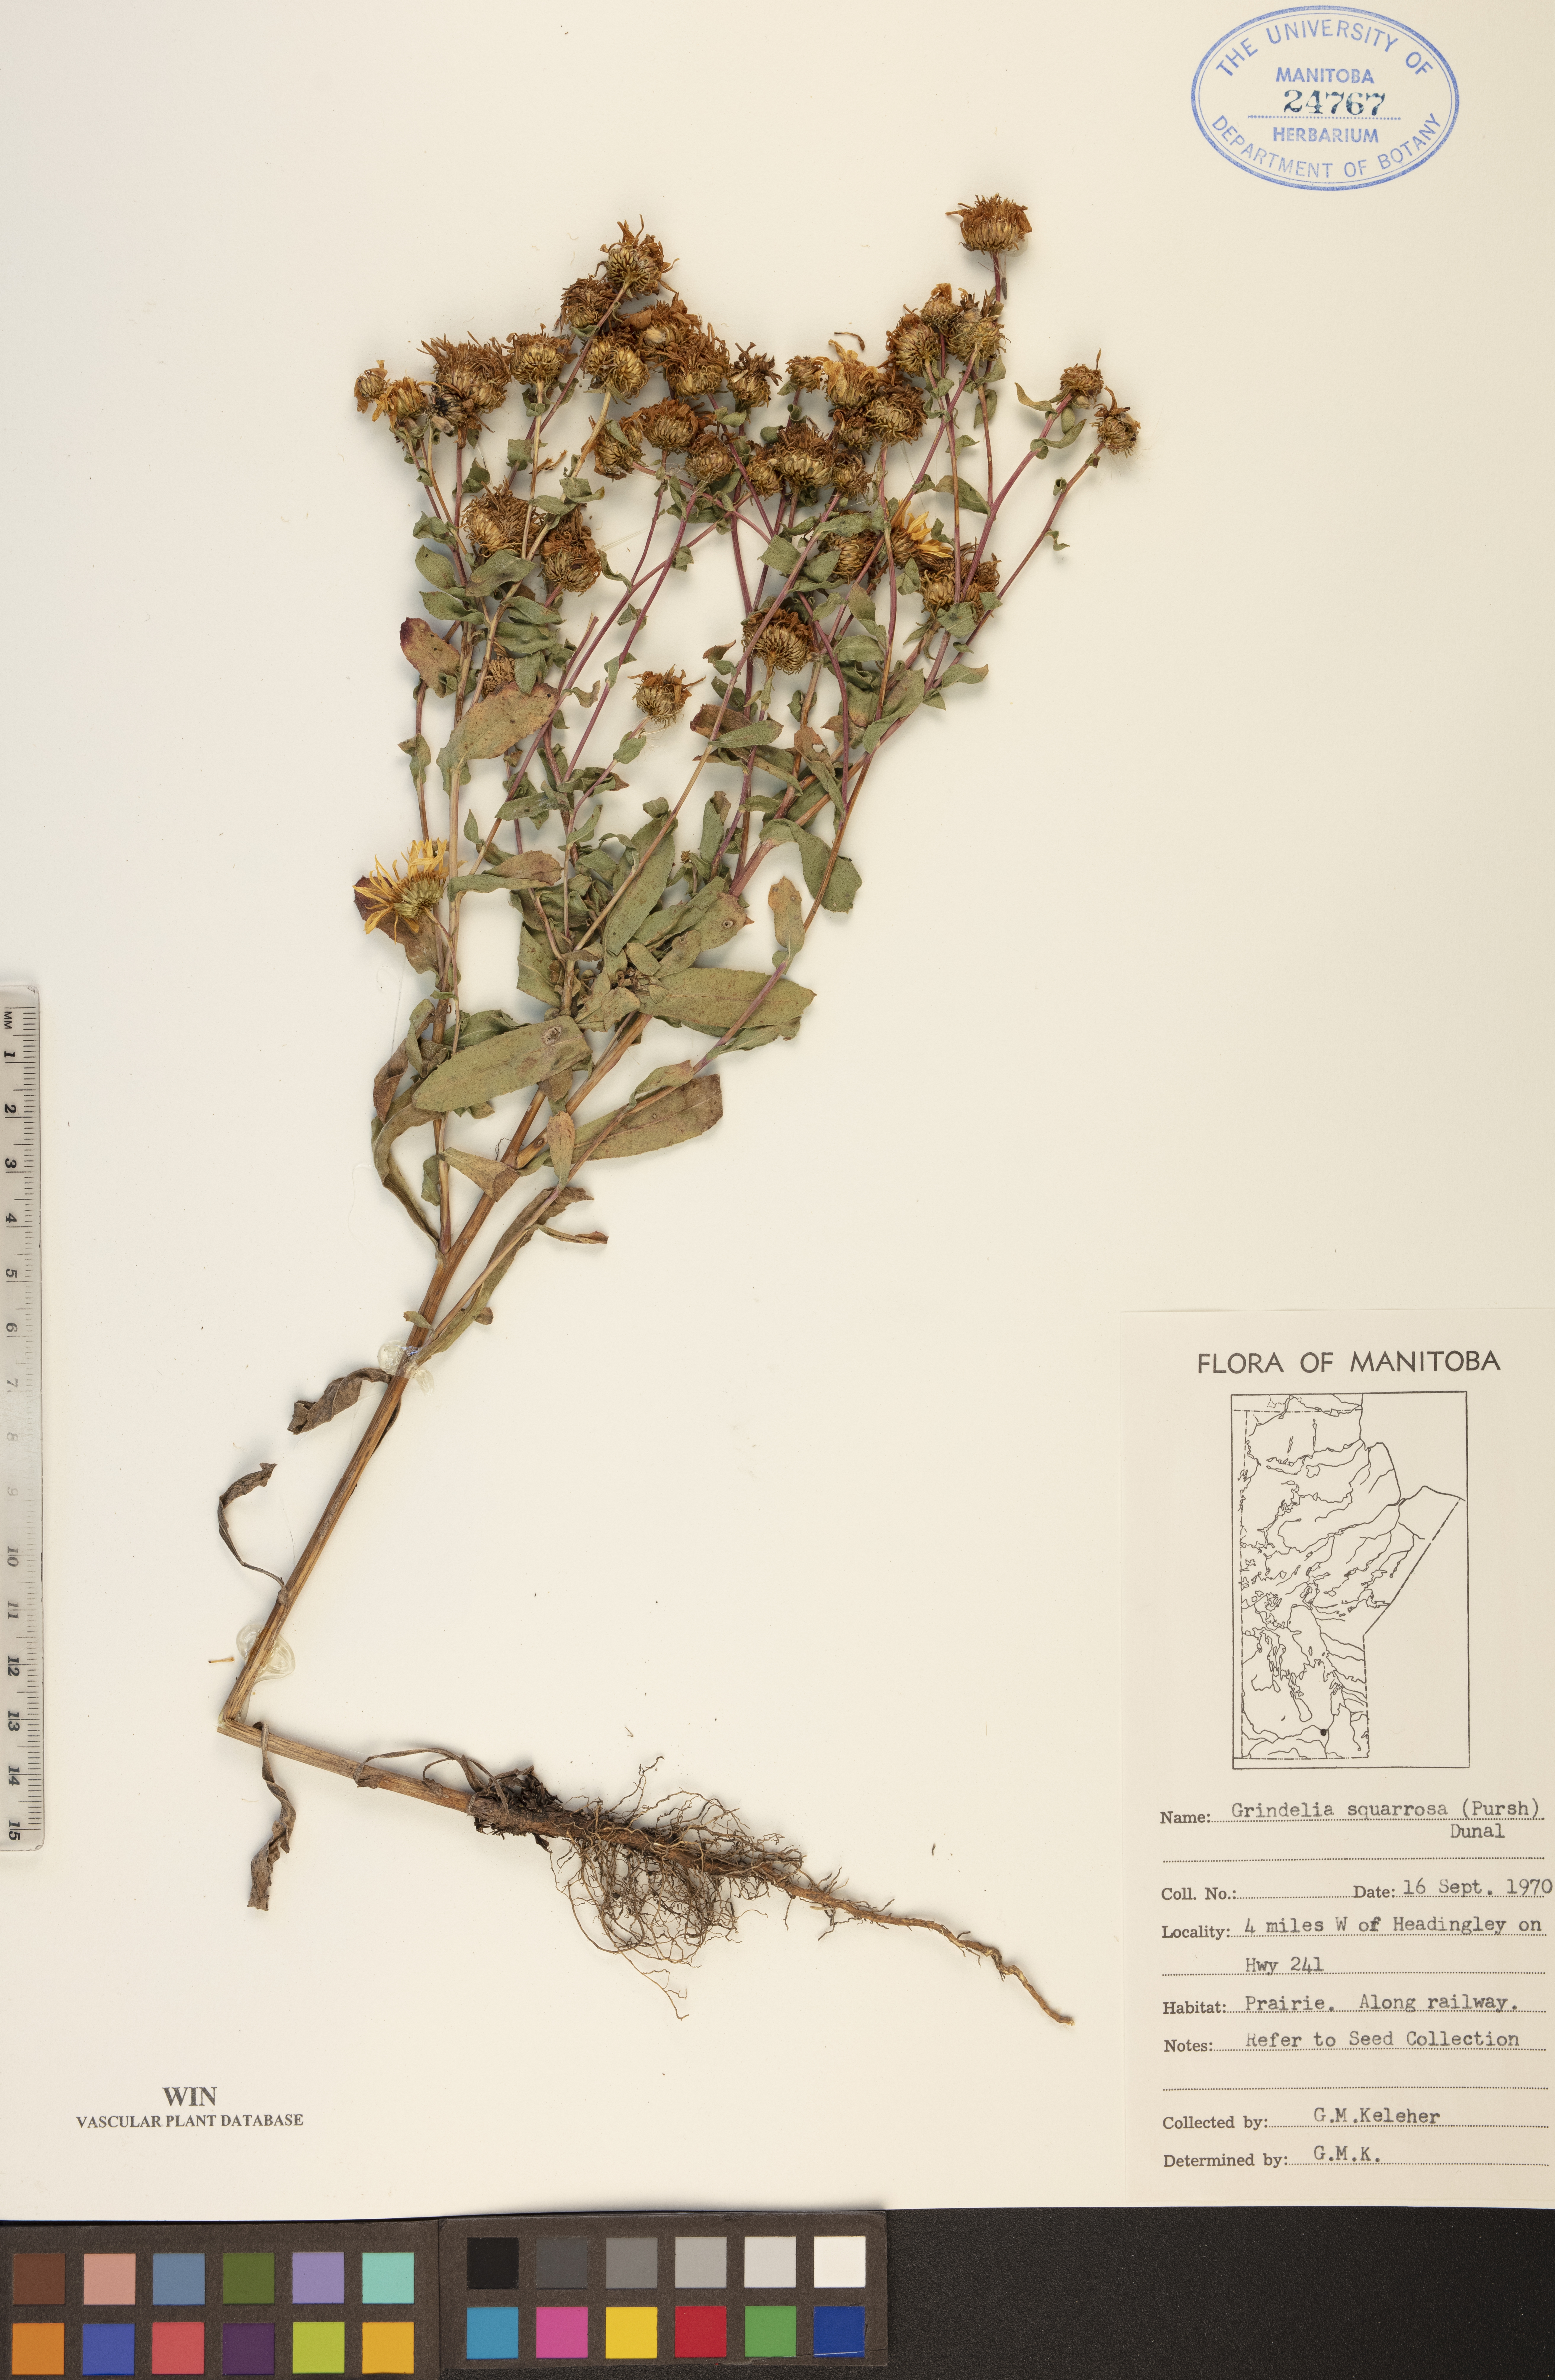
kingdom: Plantae
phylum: Tracheophyta
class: Magnoliopsida
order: Asterales
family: Asteraceae
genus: Grindelia
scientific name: Grindelia squarrosa
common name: Curly-cup gumweed
